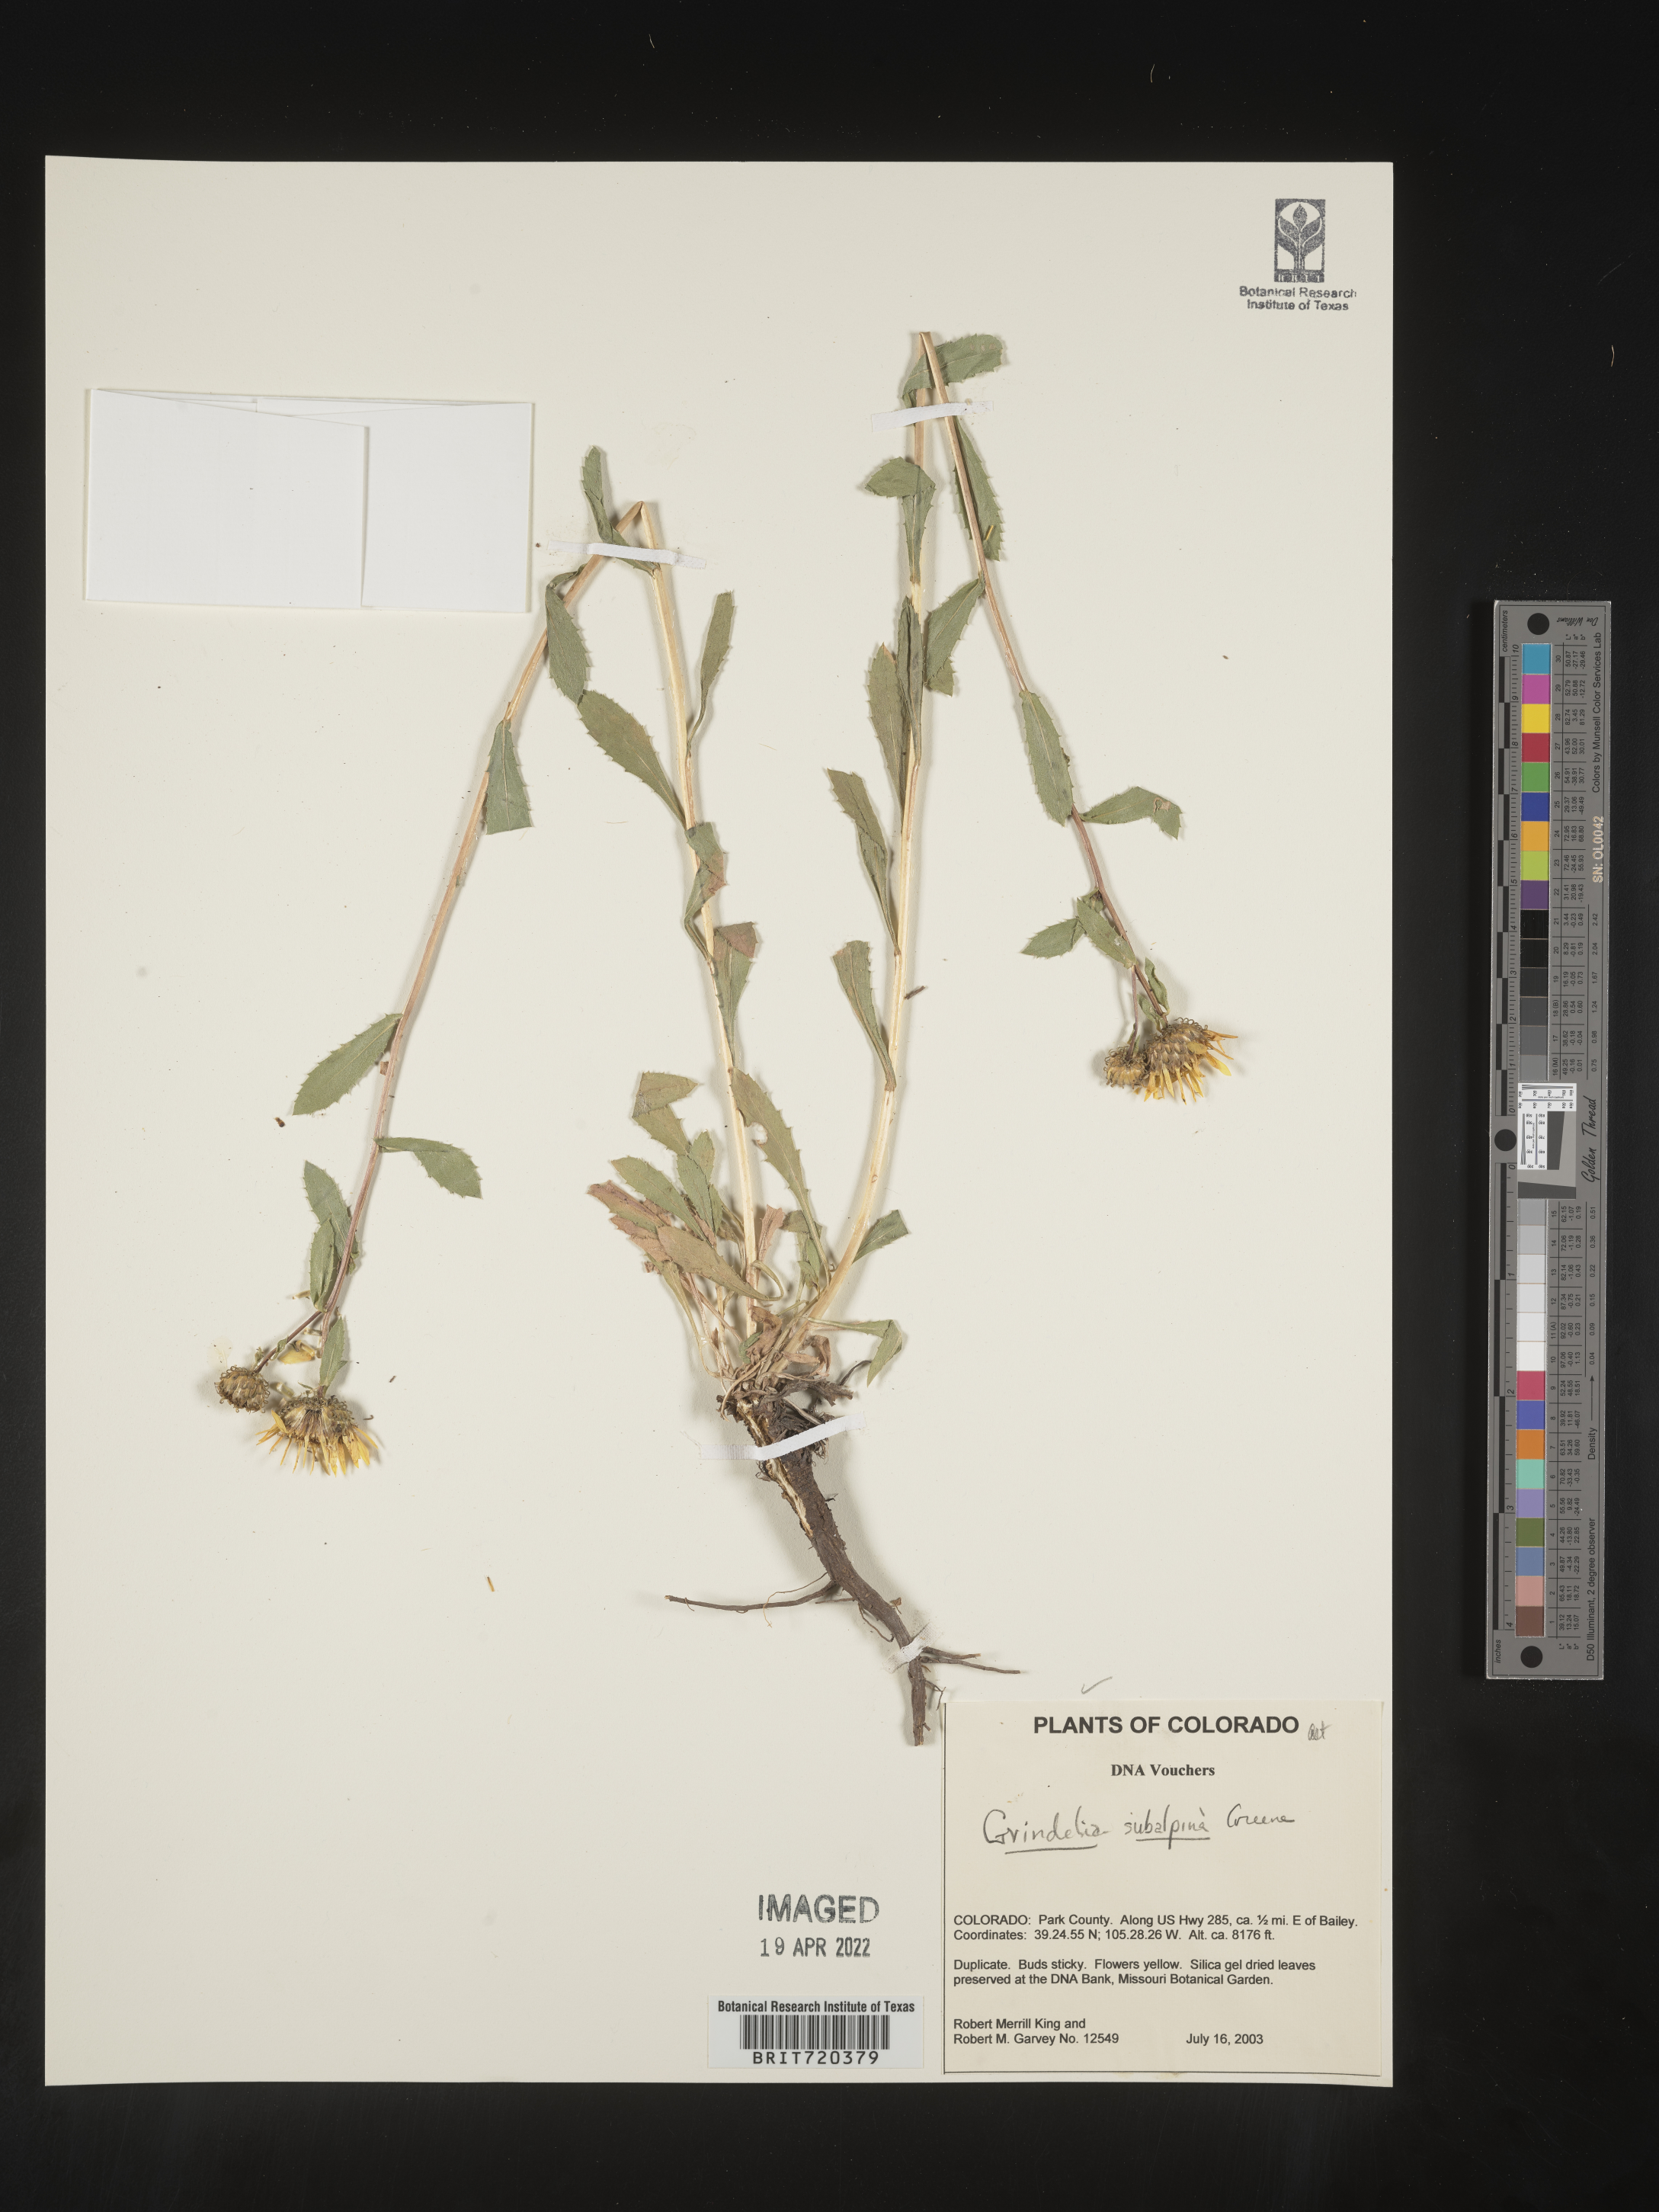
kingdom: Plantae
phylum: Tracheophyta
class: Magnoliopsida
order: Asterales
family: Asteraceae
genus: Grindelia
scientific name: Grindelia subalpina
